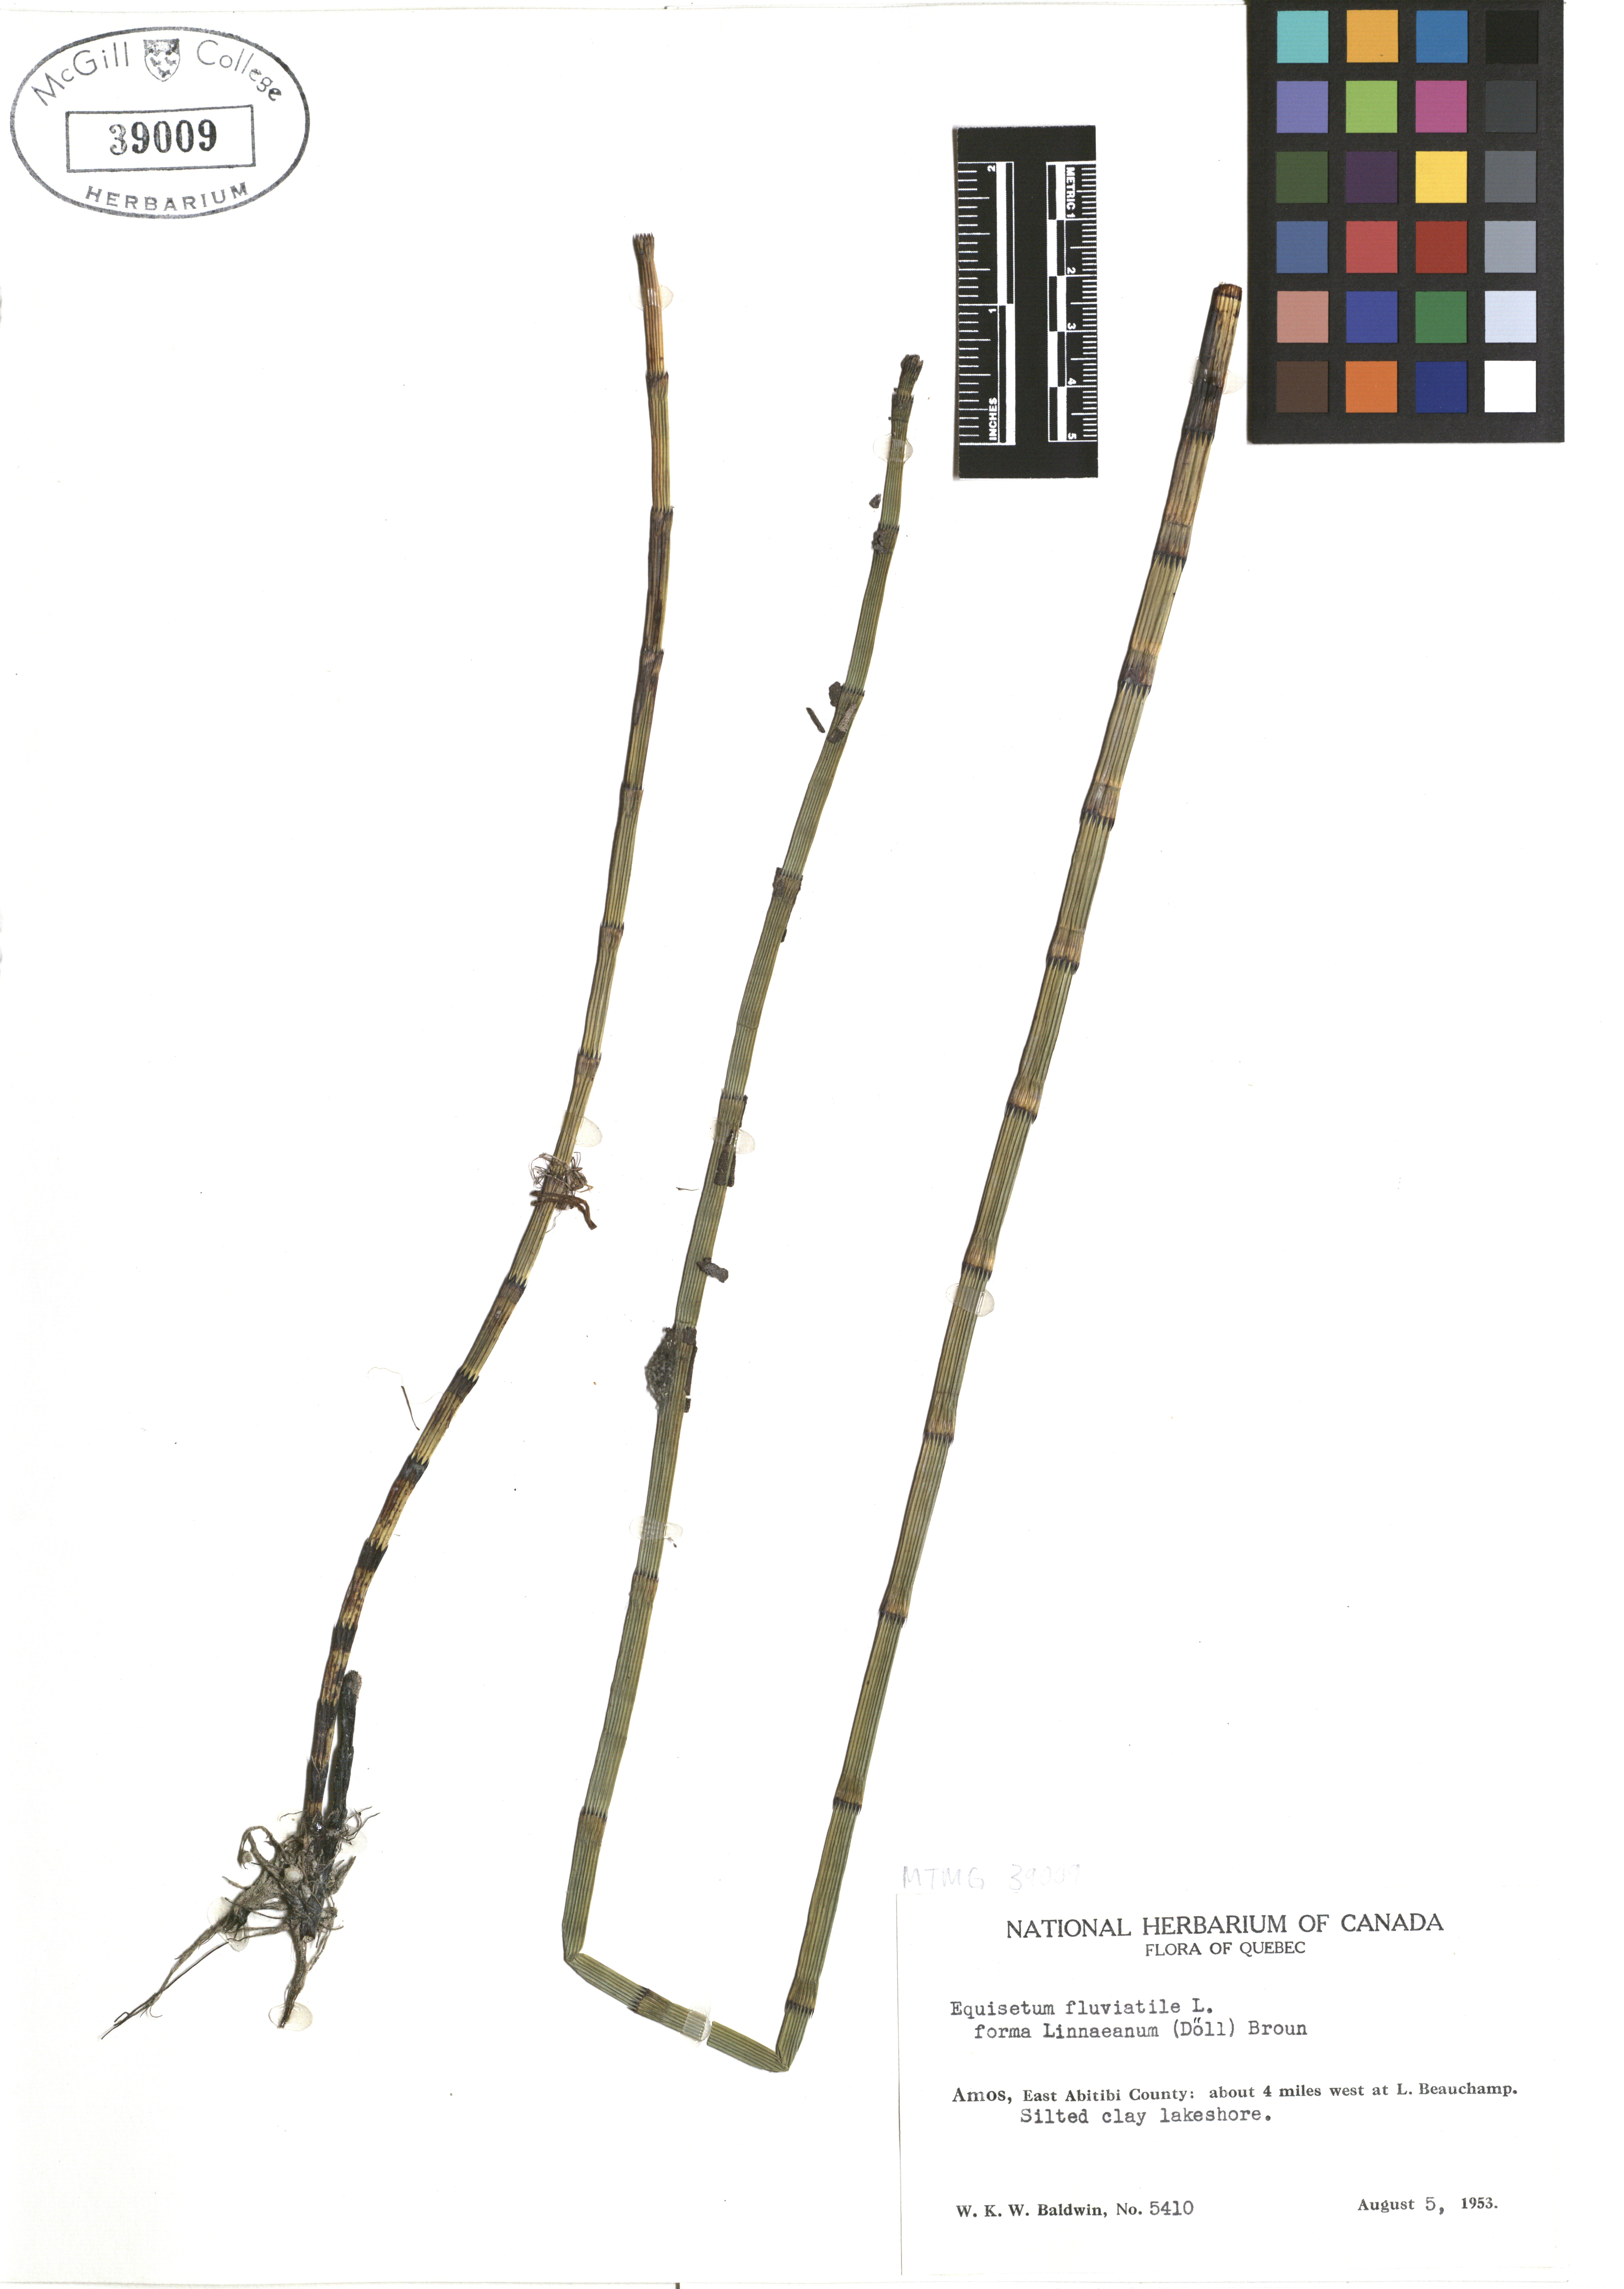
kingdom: Plantae
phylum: Tracheophyta
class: Polypodiopsida
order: Equisetales
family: Equisetaceae
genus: Equisetum
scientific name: Equisetum fluviatile
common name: Water horsetail
